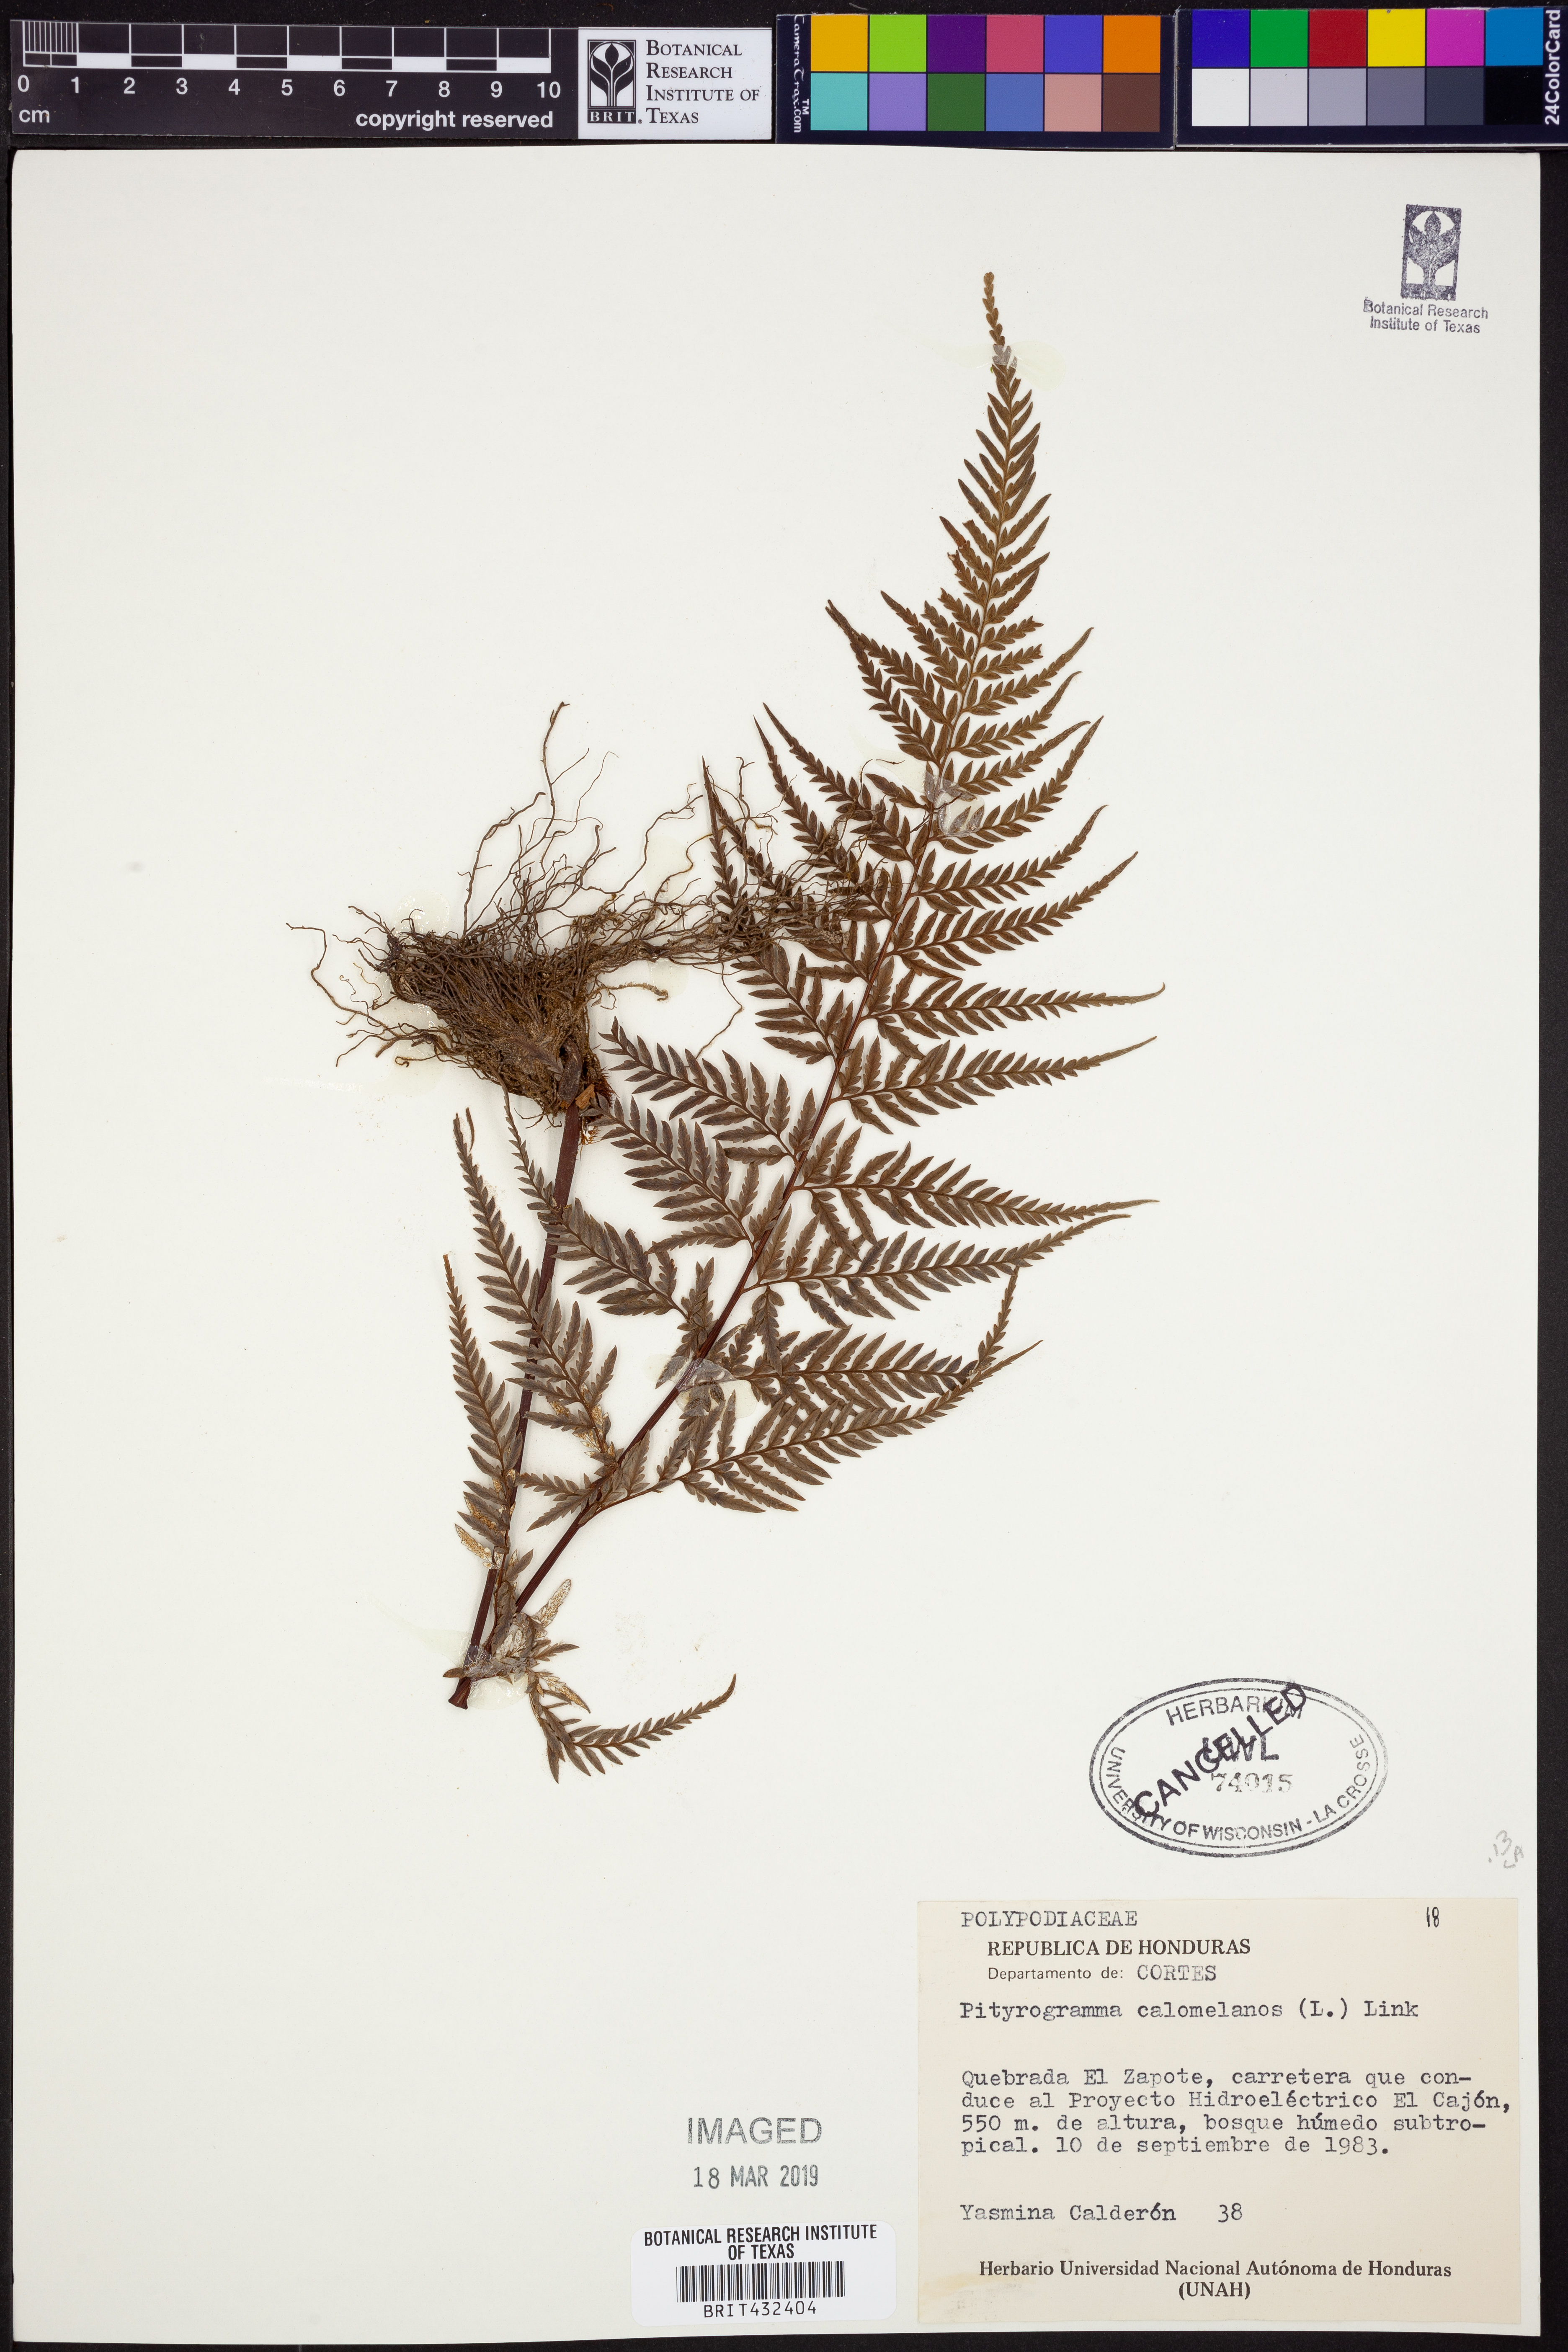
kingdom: Plantae
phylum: Tracheophyta
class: Polypodiopsida
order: Polypodiales
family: Pteridaceae
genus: Pityrogramma
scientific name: Pityrogramma calomelanos
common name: Dixie silverback fern
